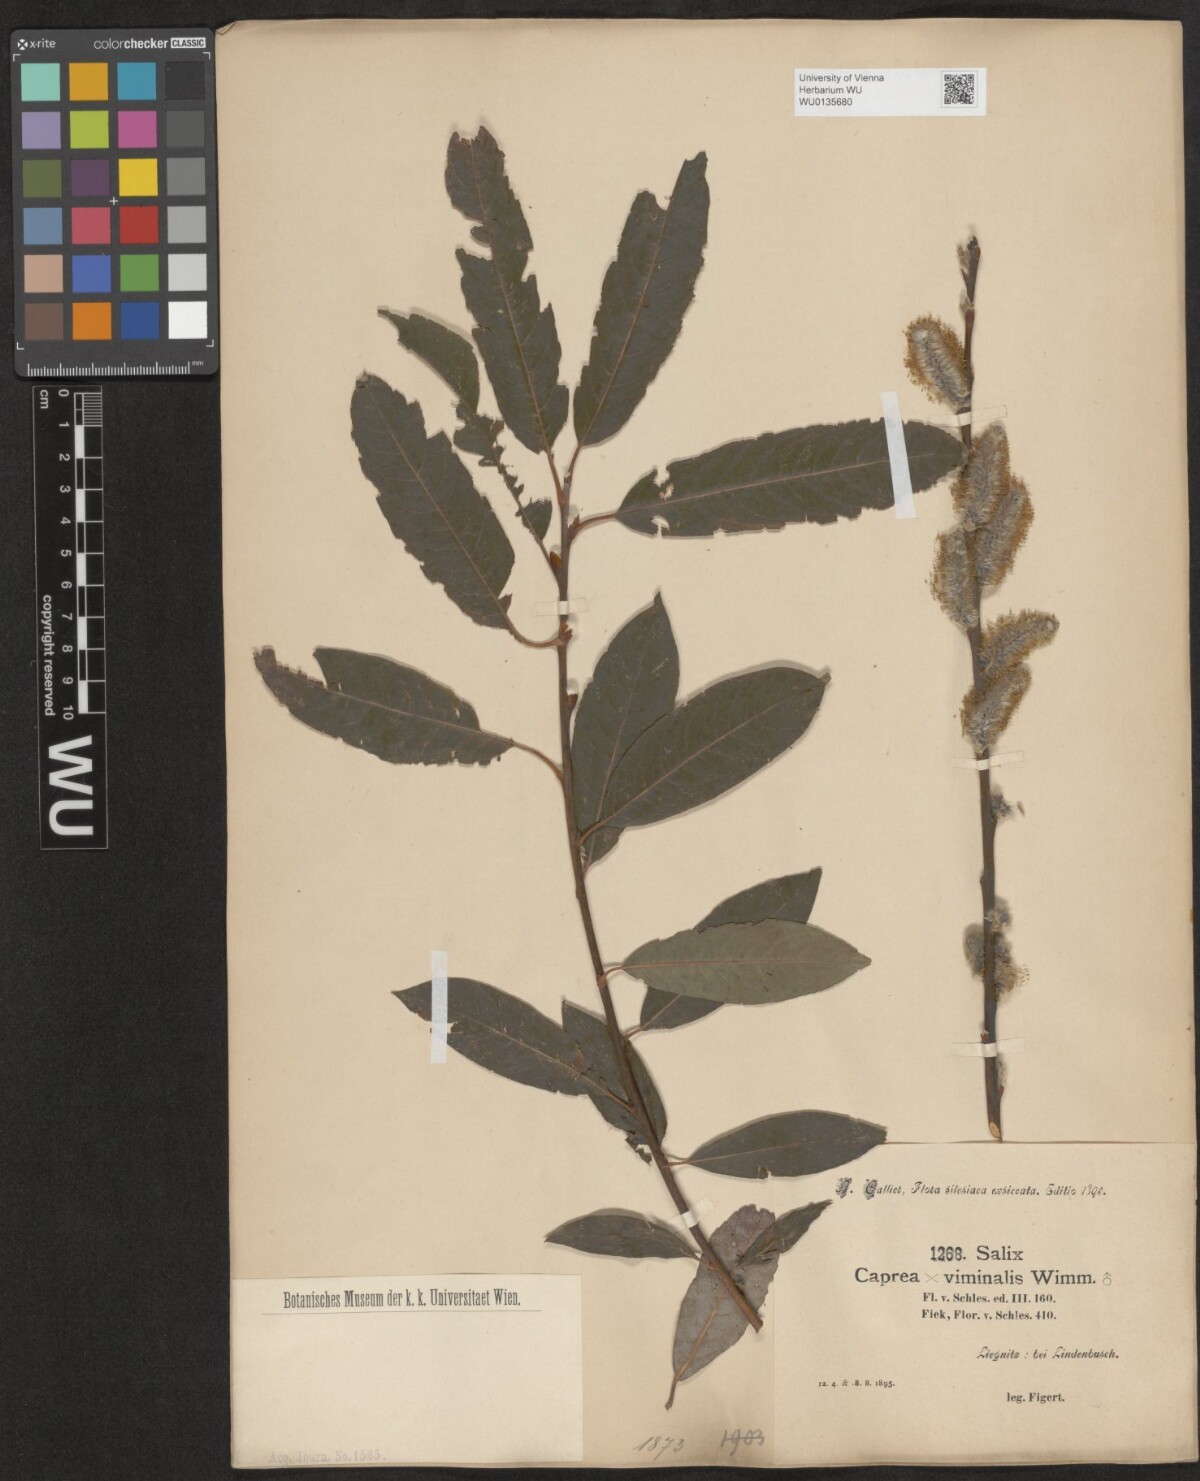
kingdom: Plantae
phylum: Tracheophyta
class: Magnoliopsida
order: Malpighiales
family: Salicaceae
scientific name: Salicaceae
